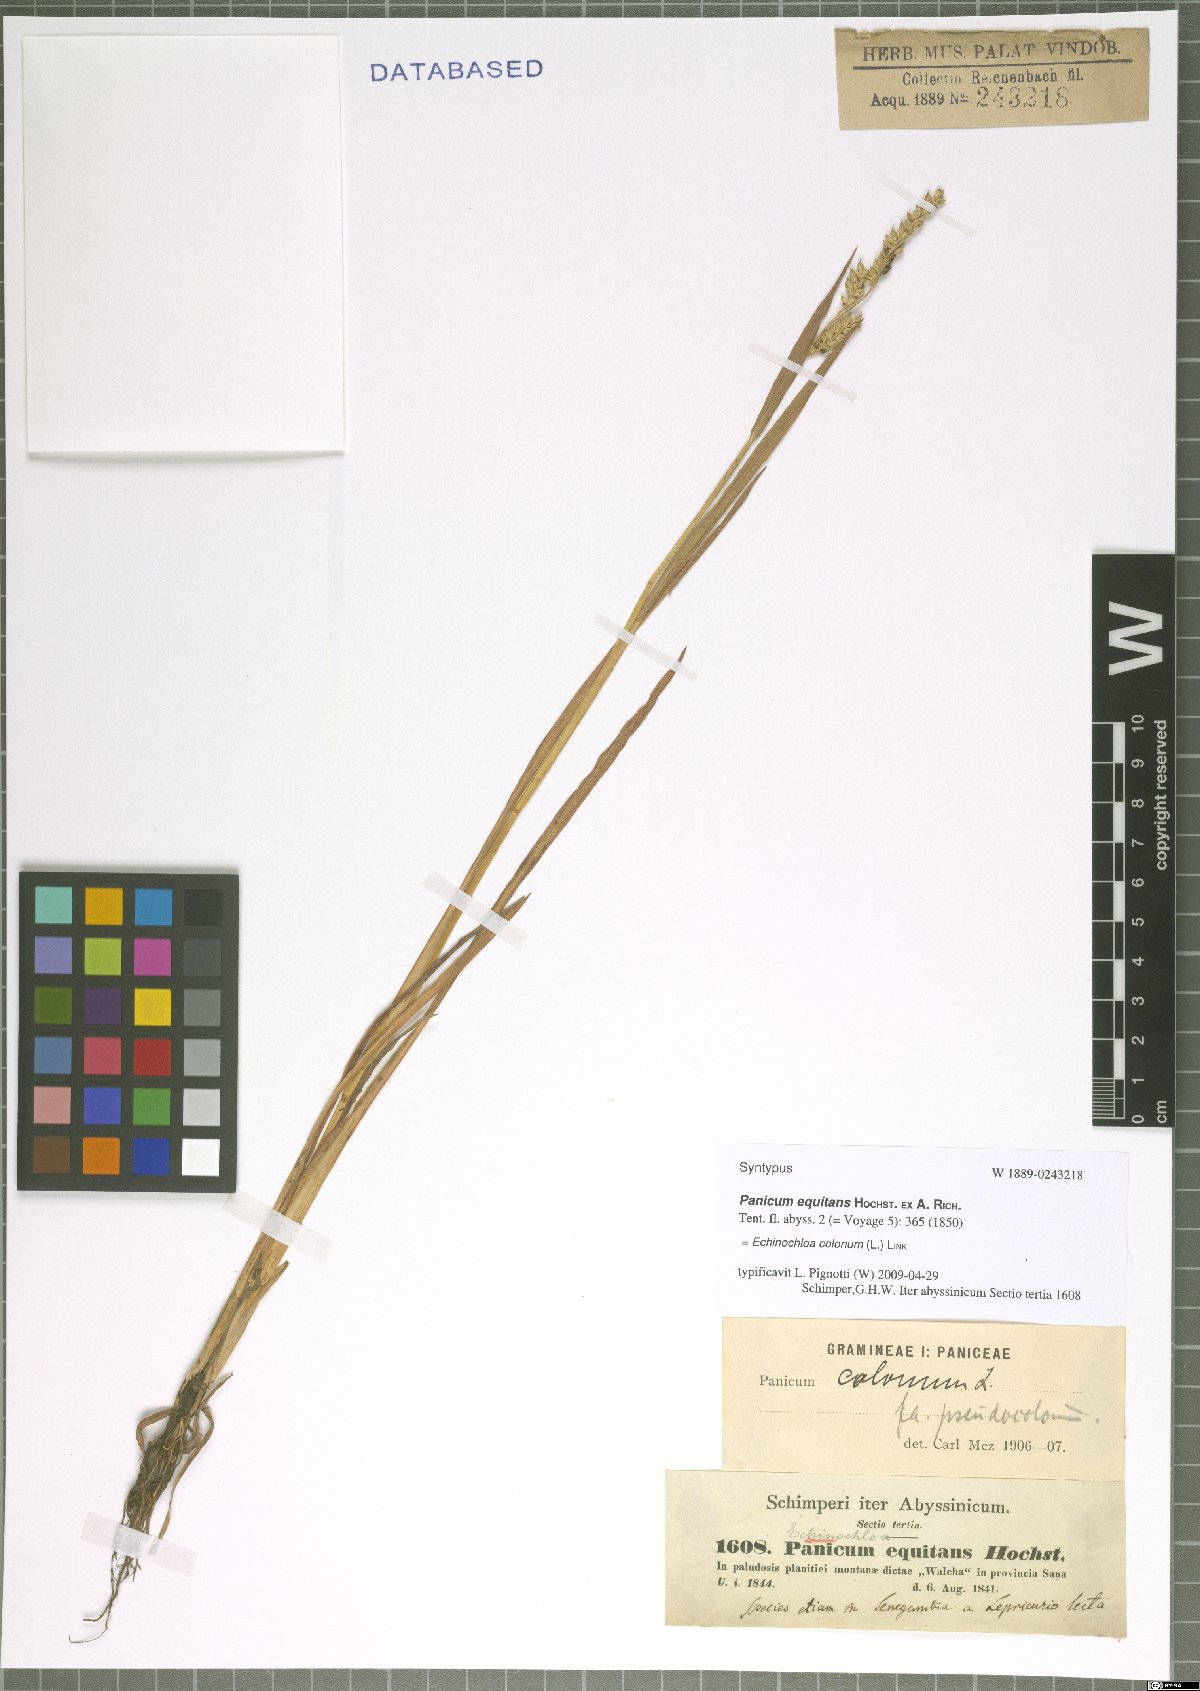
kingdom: Plantae
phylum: Tracheophyta
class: Liliopsida
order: Poales
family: Poaceae
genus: Echinochloa
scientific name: Echinochloa colonum
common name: Jungle rice
